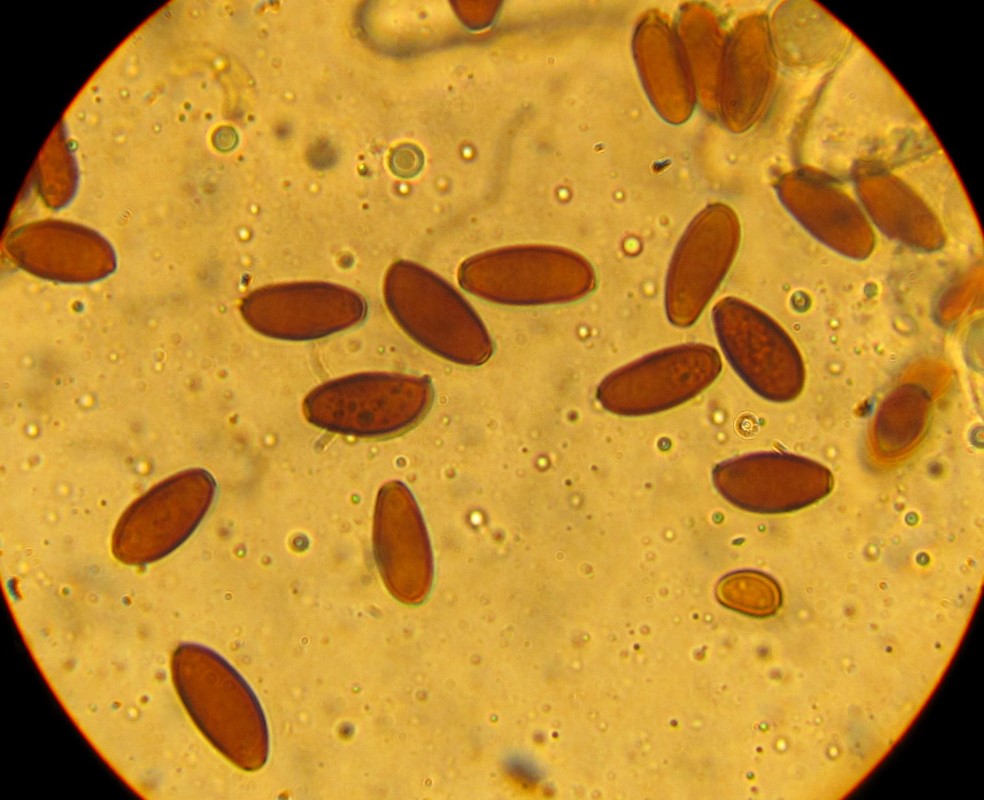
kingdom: Fungi
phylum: Basidiomycota
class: Agaricomycetes
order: Agaricales
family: Psathyrellaceae
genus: Psathyrella
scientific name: Psathyrella bipellis
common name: vinrød mørkhat
